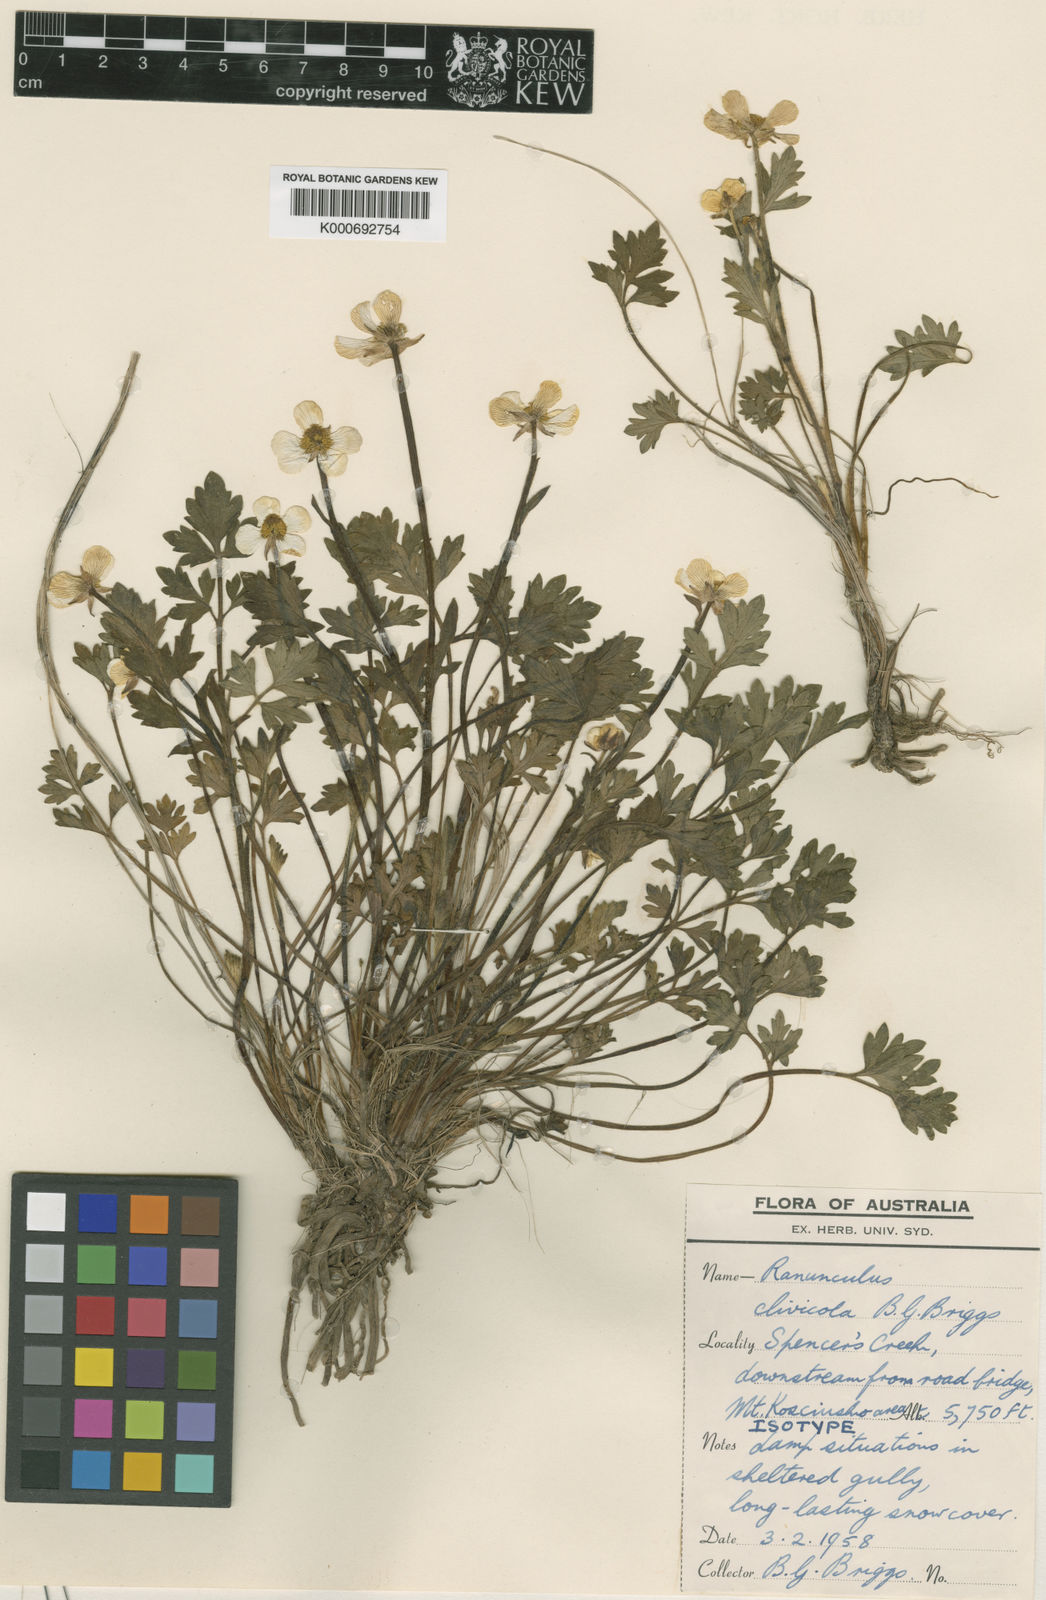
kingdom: Plantae
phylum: Tracheophyta
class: Magnoliopsida
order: Ranunculales
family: Ranunculaceae
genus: Ranunculus
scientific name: Ranunculus lappaceus
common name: Australian buttercup
